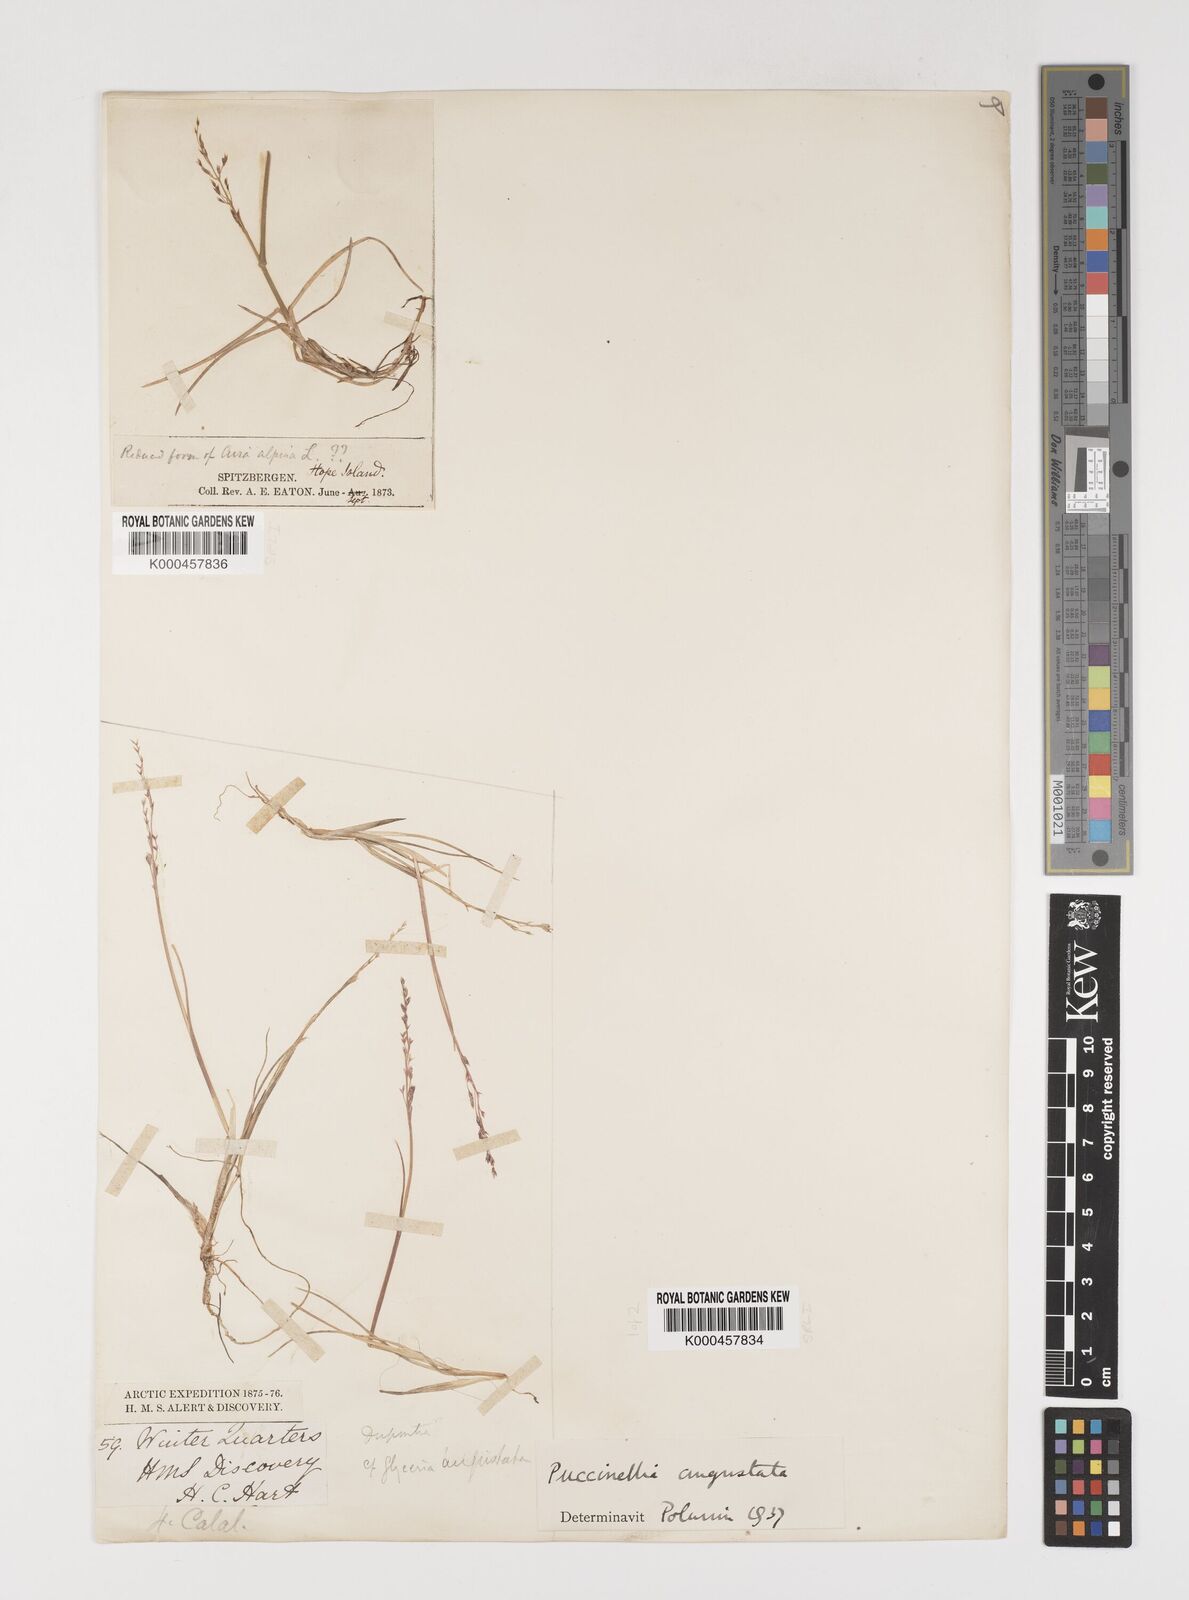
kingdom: Plantae
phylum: Tracheophyta
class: Liliopsida
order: Poales
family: Poaceae
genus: Puccinellia
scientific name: Puccinellia angustata
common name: Narrow alkaligrass
